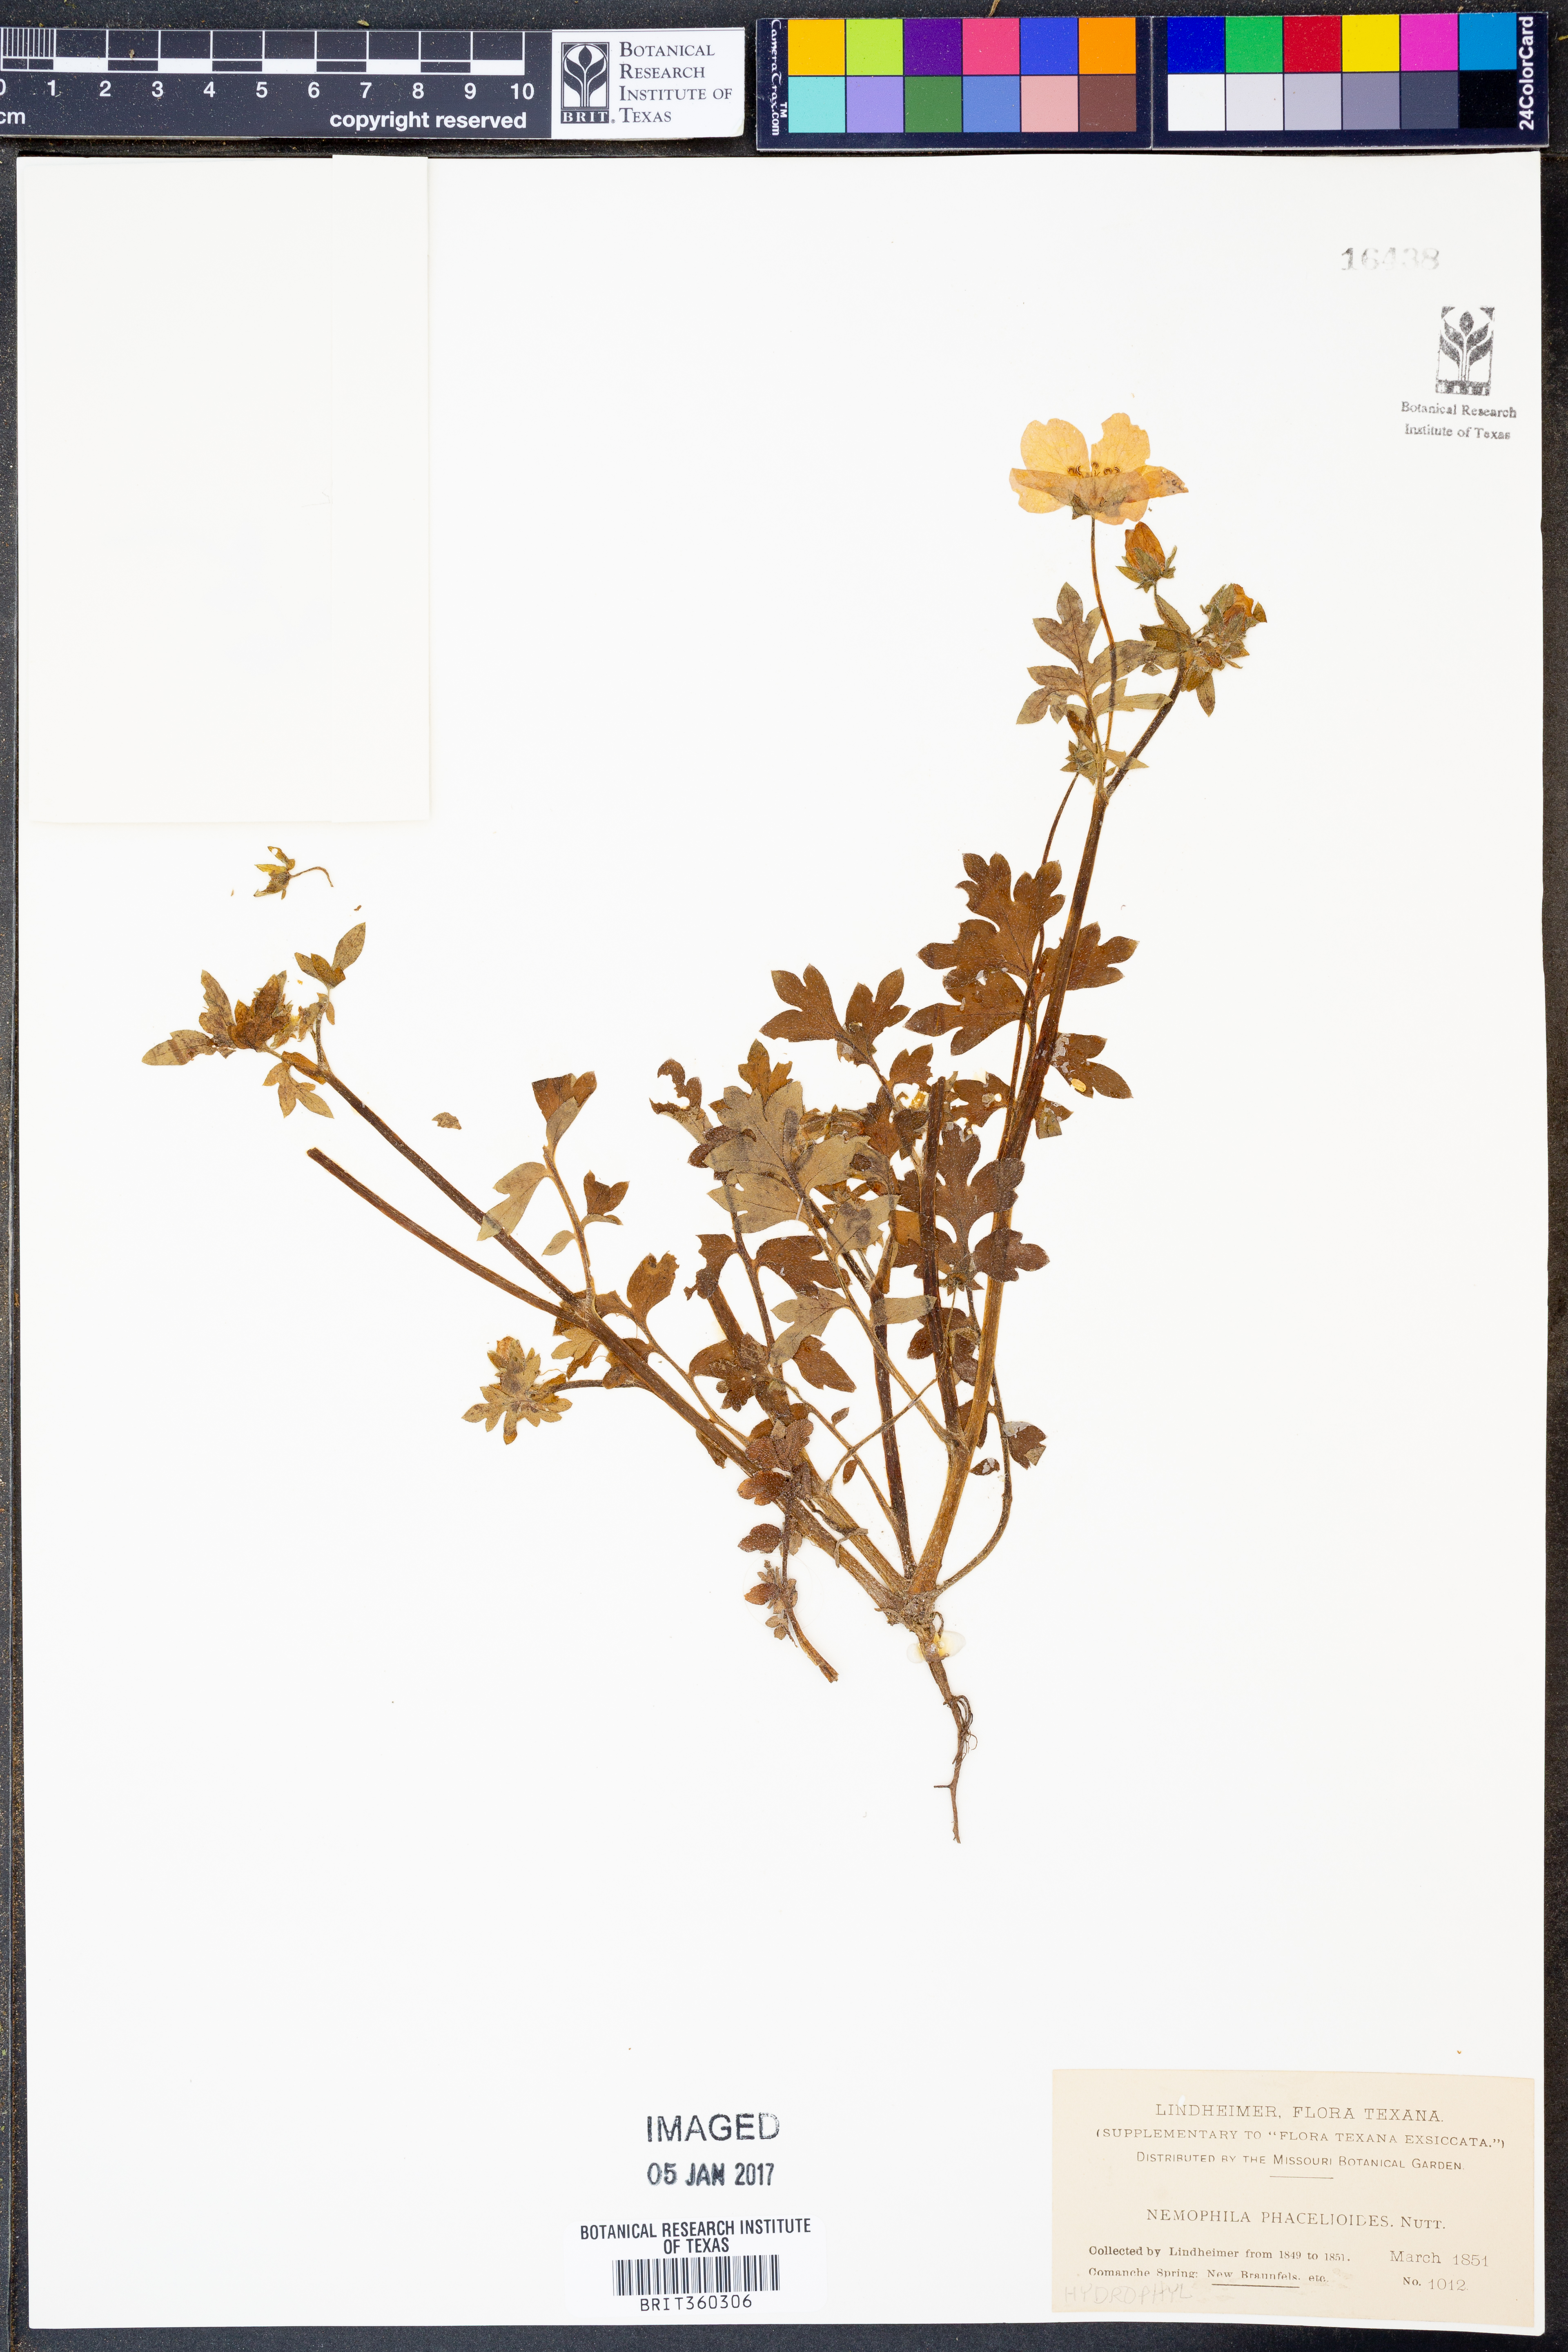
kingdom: Plantae
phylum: Tracheophyta
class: Magnoliopsida
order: Boraginales
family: Hydrophyllaceae
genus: Nemophila
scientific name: Nemophila phacelioides
